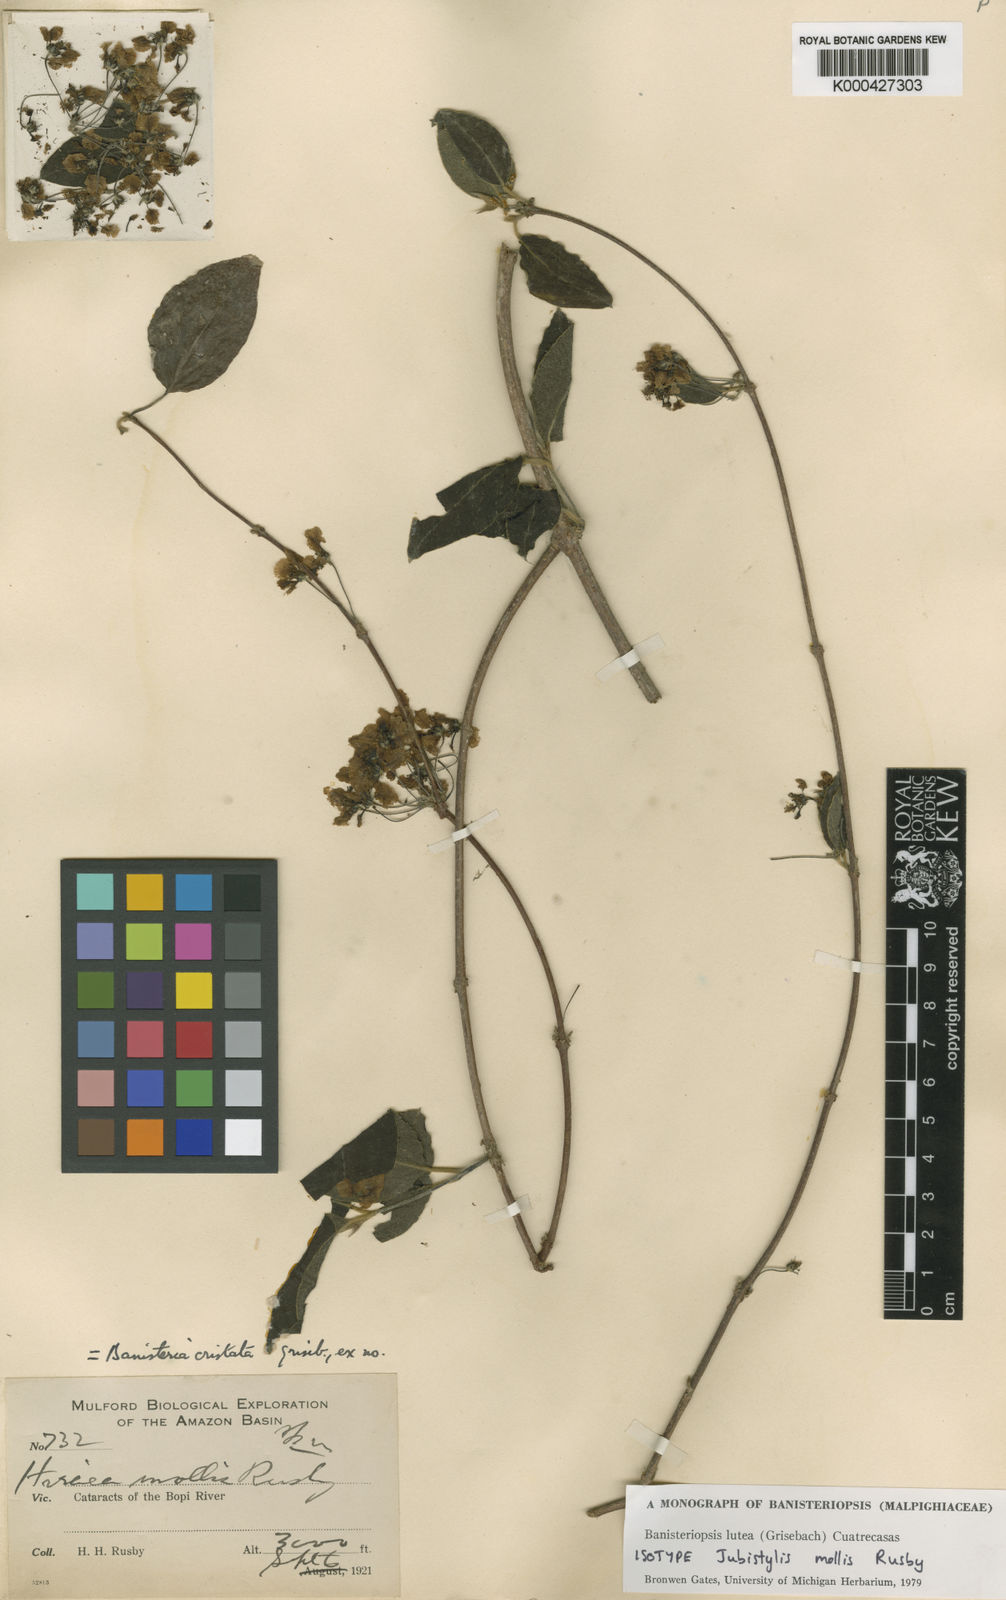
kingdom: Plantae
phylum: Tracheophyta
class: Magnoliopsida
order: Malpighiales
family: Malpighiaceae
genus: Diplopterys
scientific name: Diplopterys lutea
